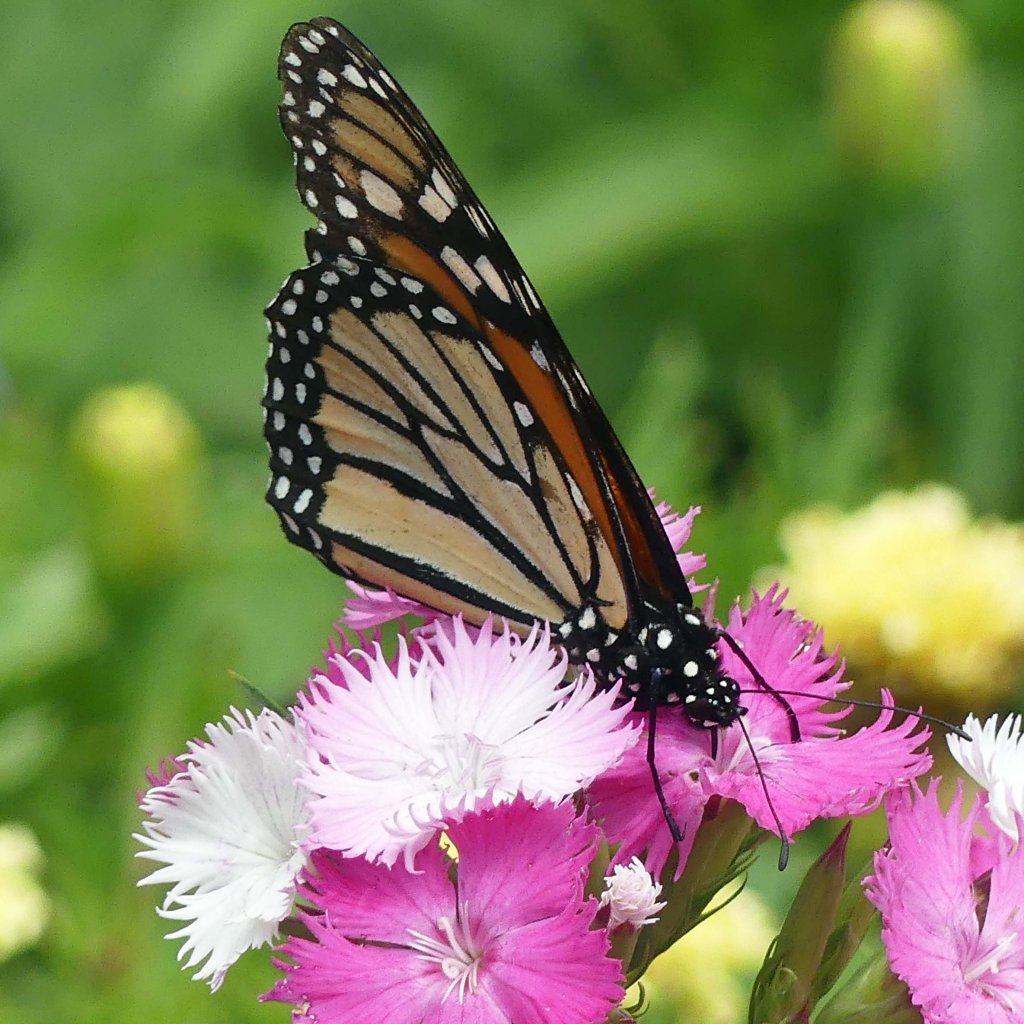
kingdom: Animalia
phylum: Arthropoda
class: Insecta
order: Lepidoptera
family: Nymphalidae
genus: Danaus
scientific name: Danaus plexippus
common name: Monarch
